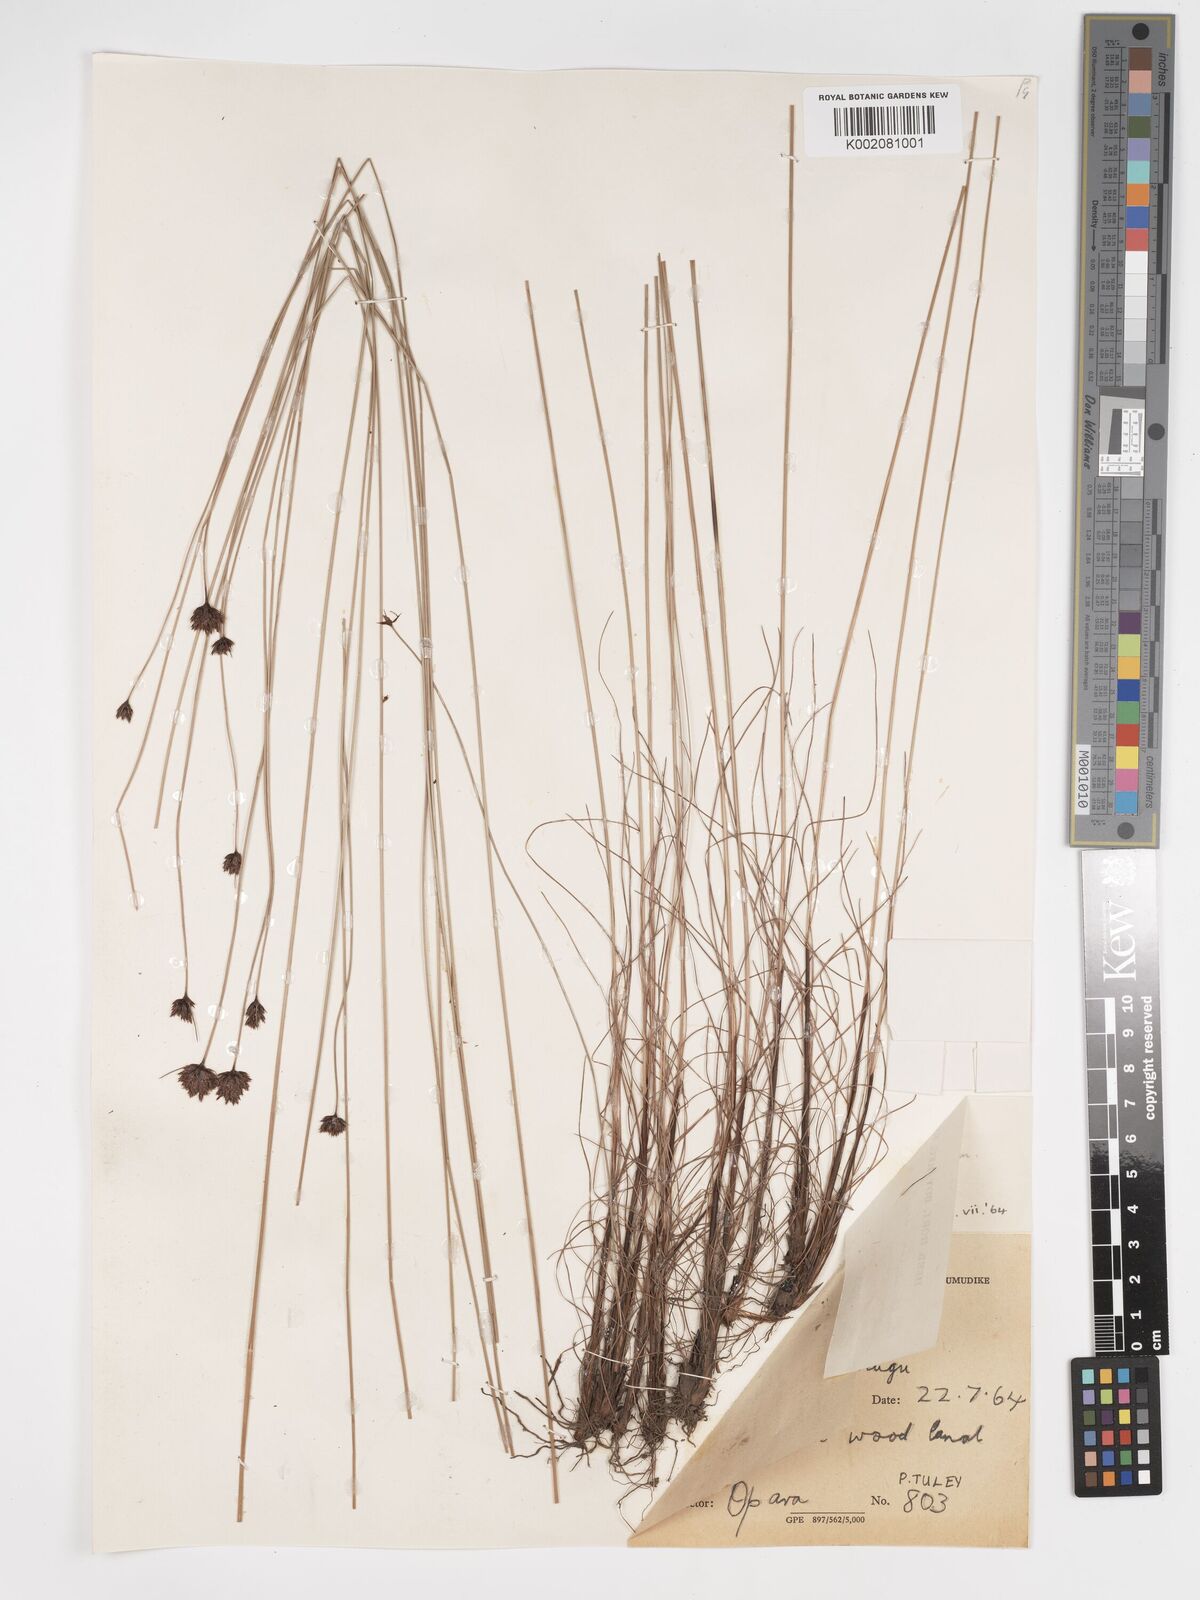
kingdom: Plantae
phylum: Tracheophyta
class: Liliopsida
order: Poales
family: Cyperaceae
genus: Bulbostylis
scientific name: Bulbostylis filamentosa
